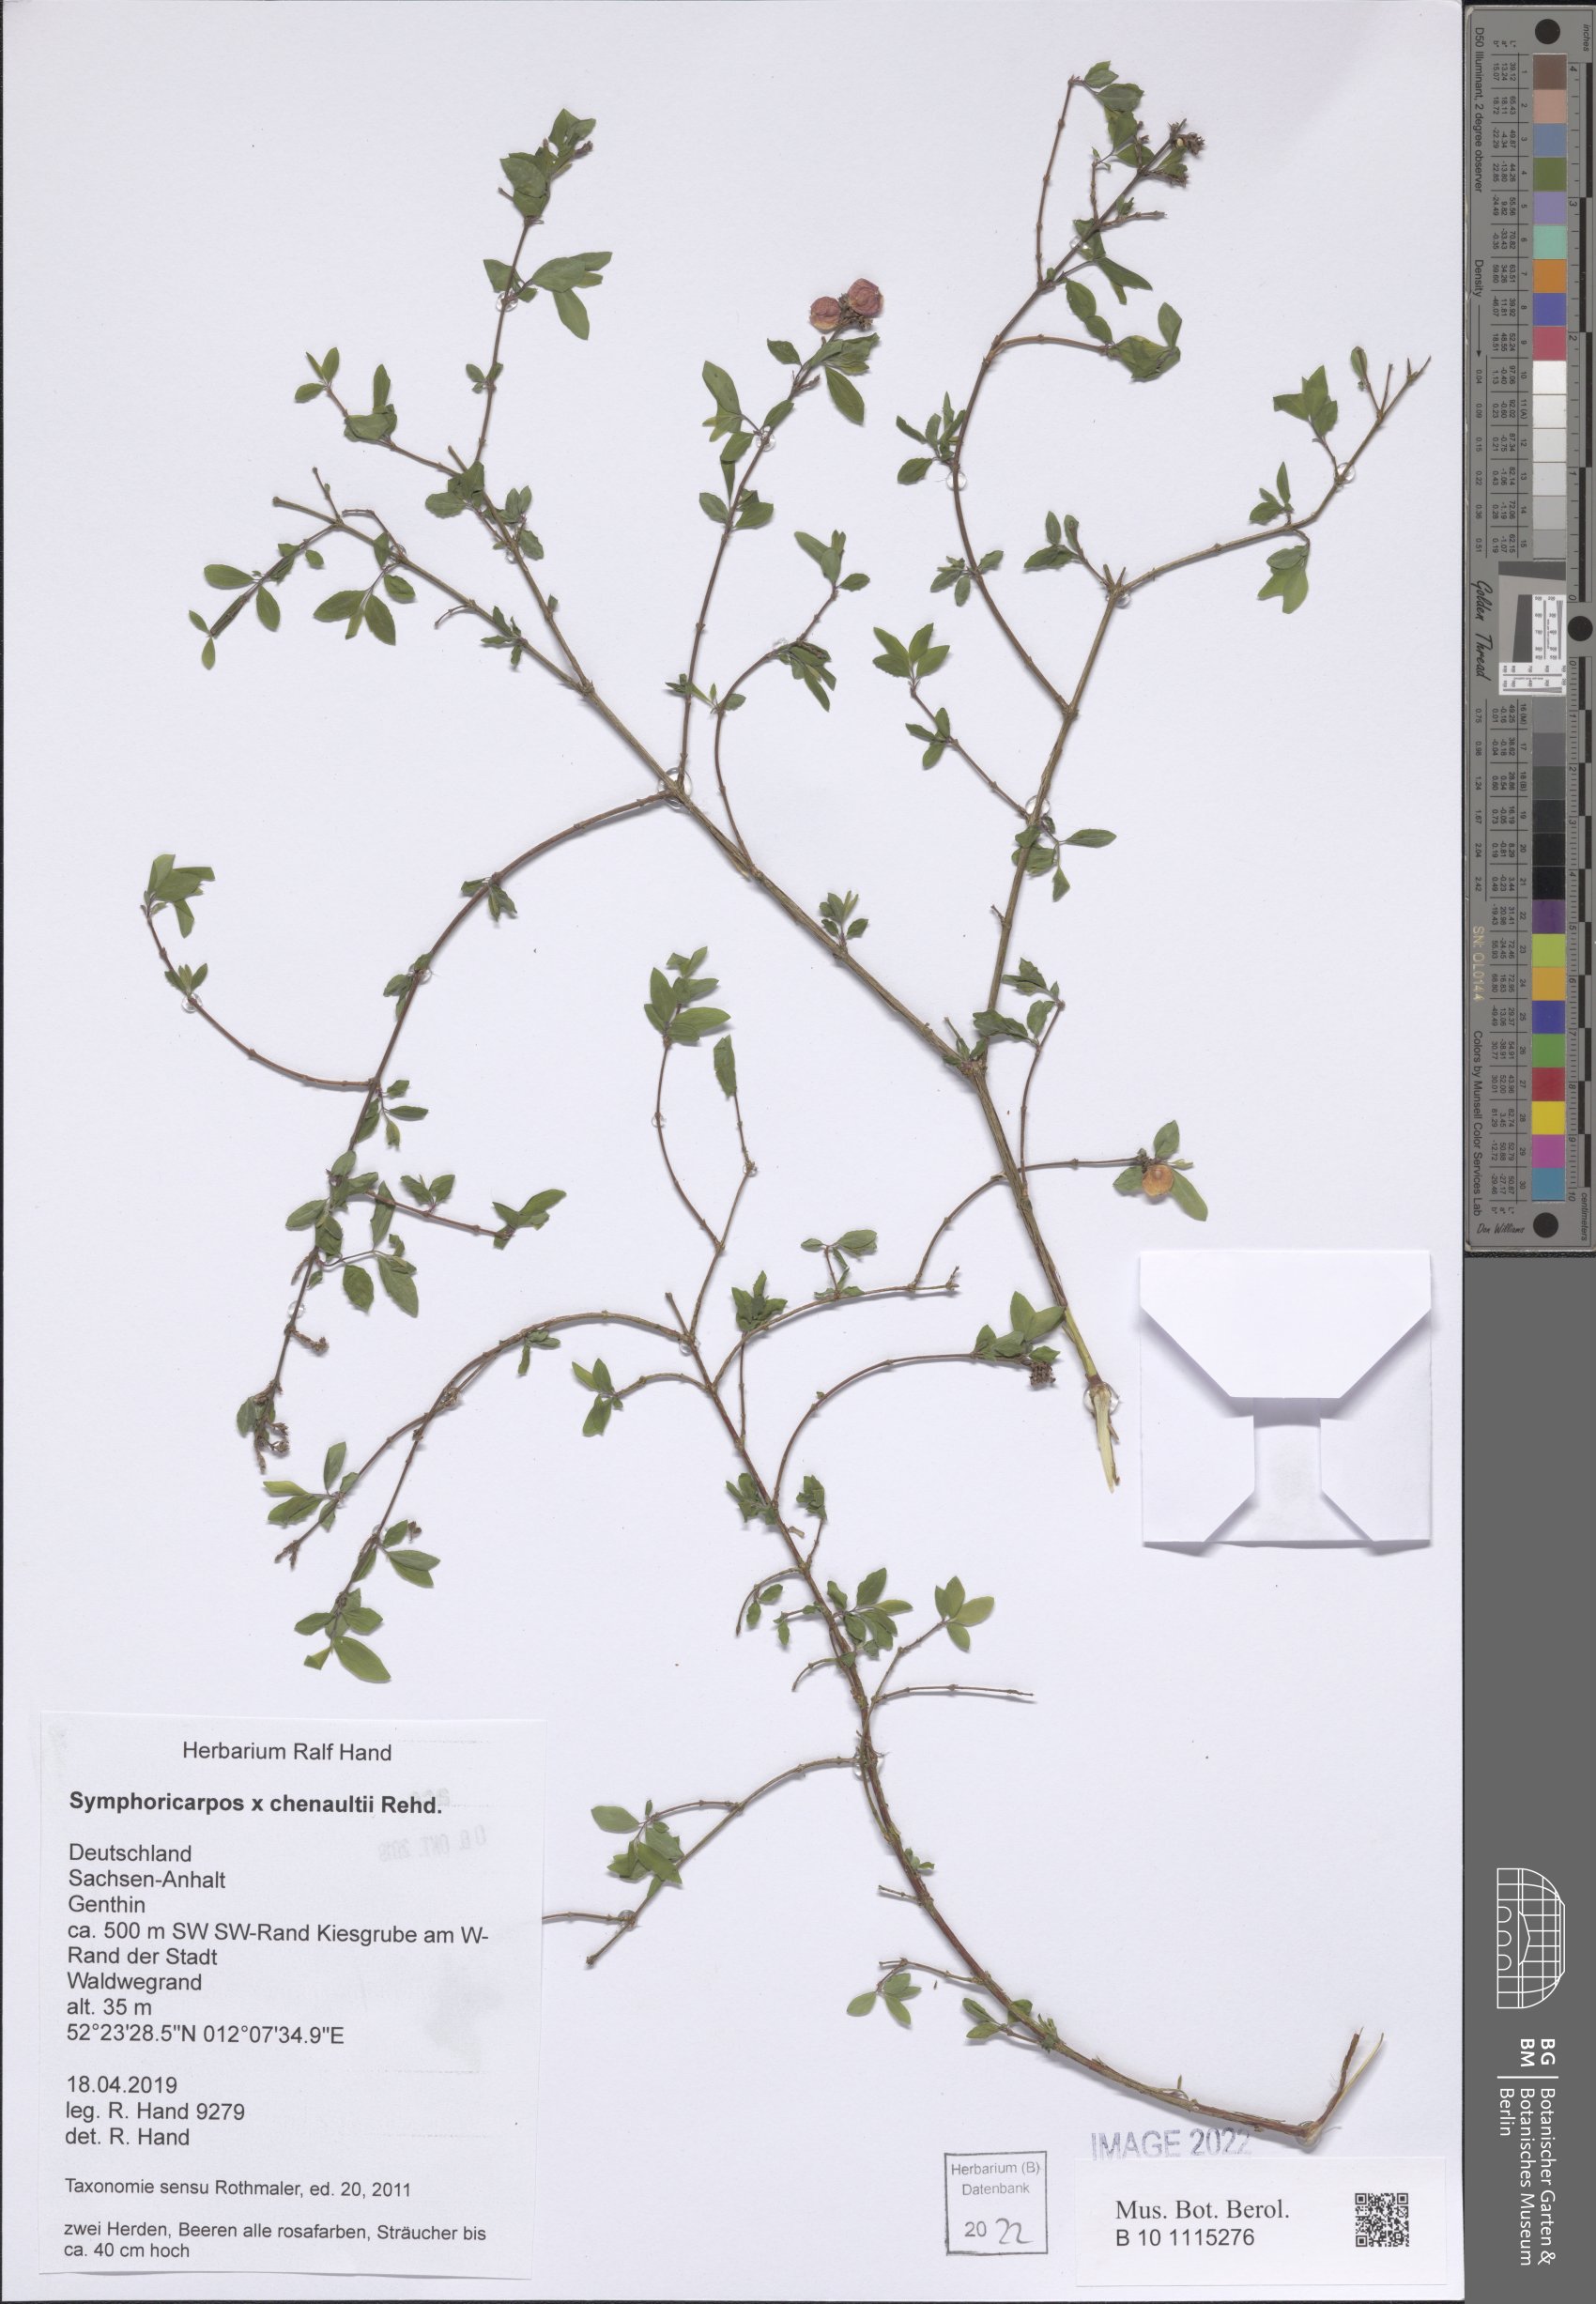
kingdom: Plantae
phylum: Tracheophyta
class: Magnoliopsida
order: Dipsacales
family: Caprifoliaceae
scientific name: Caprifoliaceae
